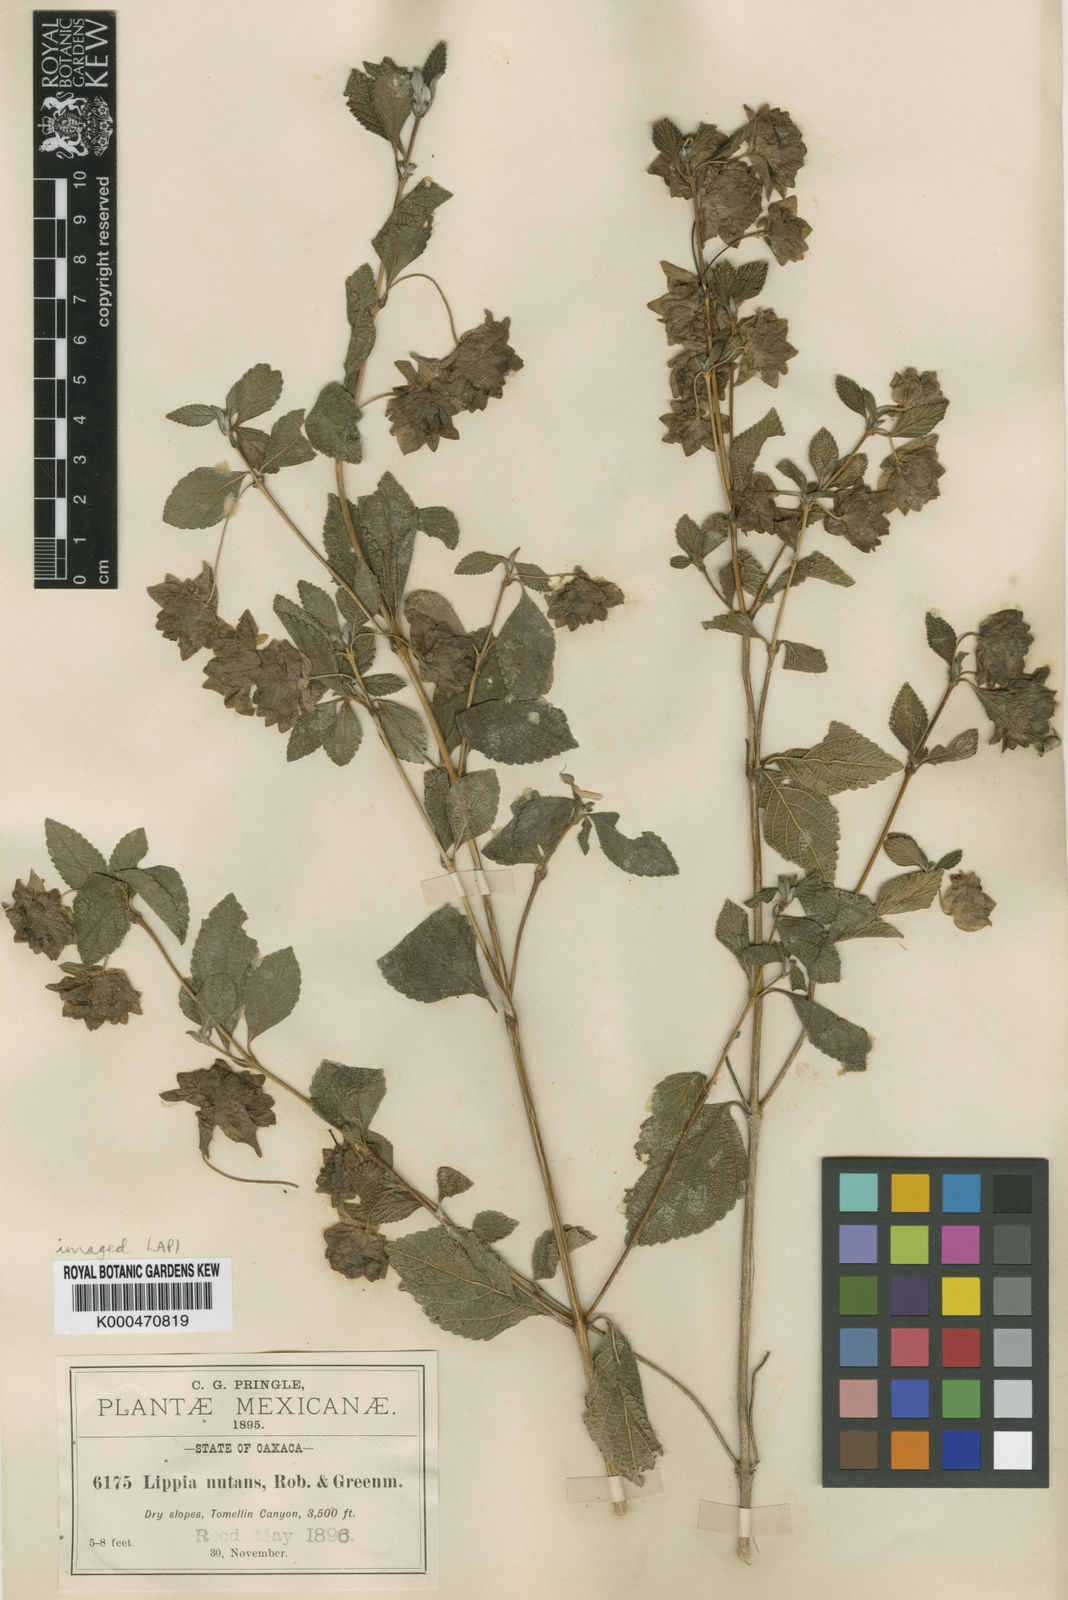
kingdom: Plantae
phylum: Tracheophyta
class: Magnoliopsida
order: Lamiales
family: Verbenaceae
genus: Lippia
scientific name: Lippia bracteosa
